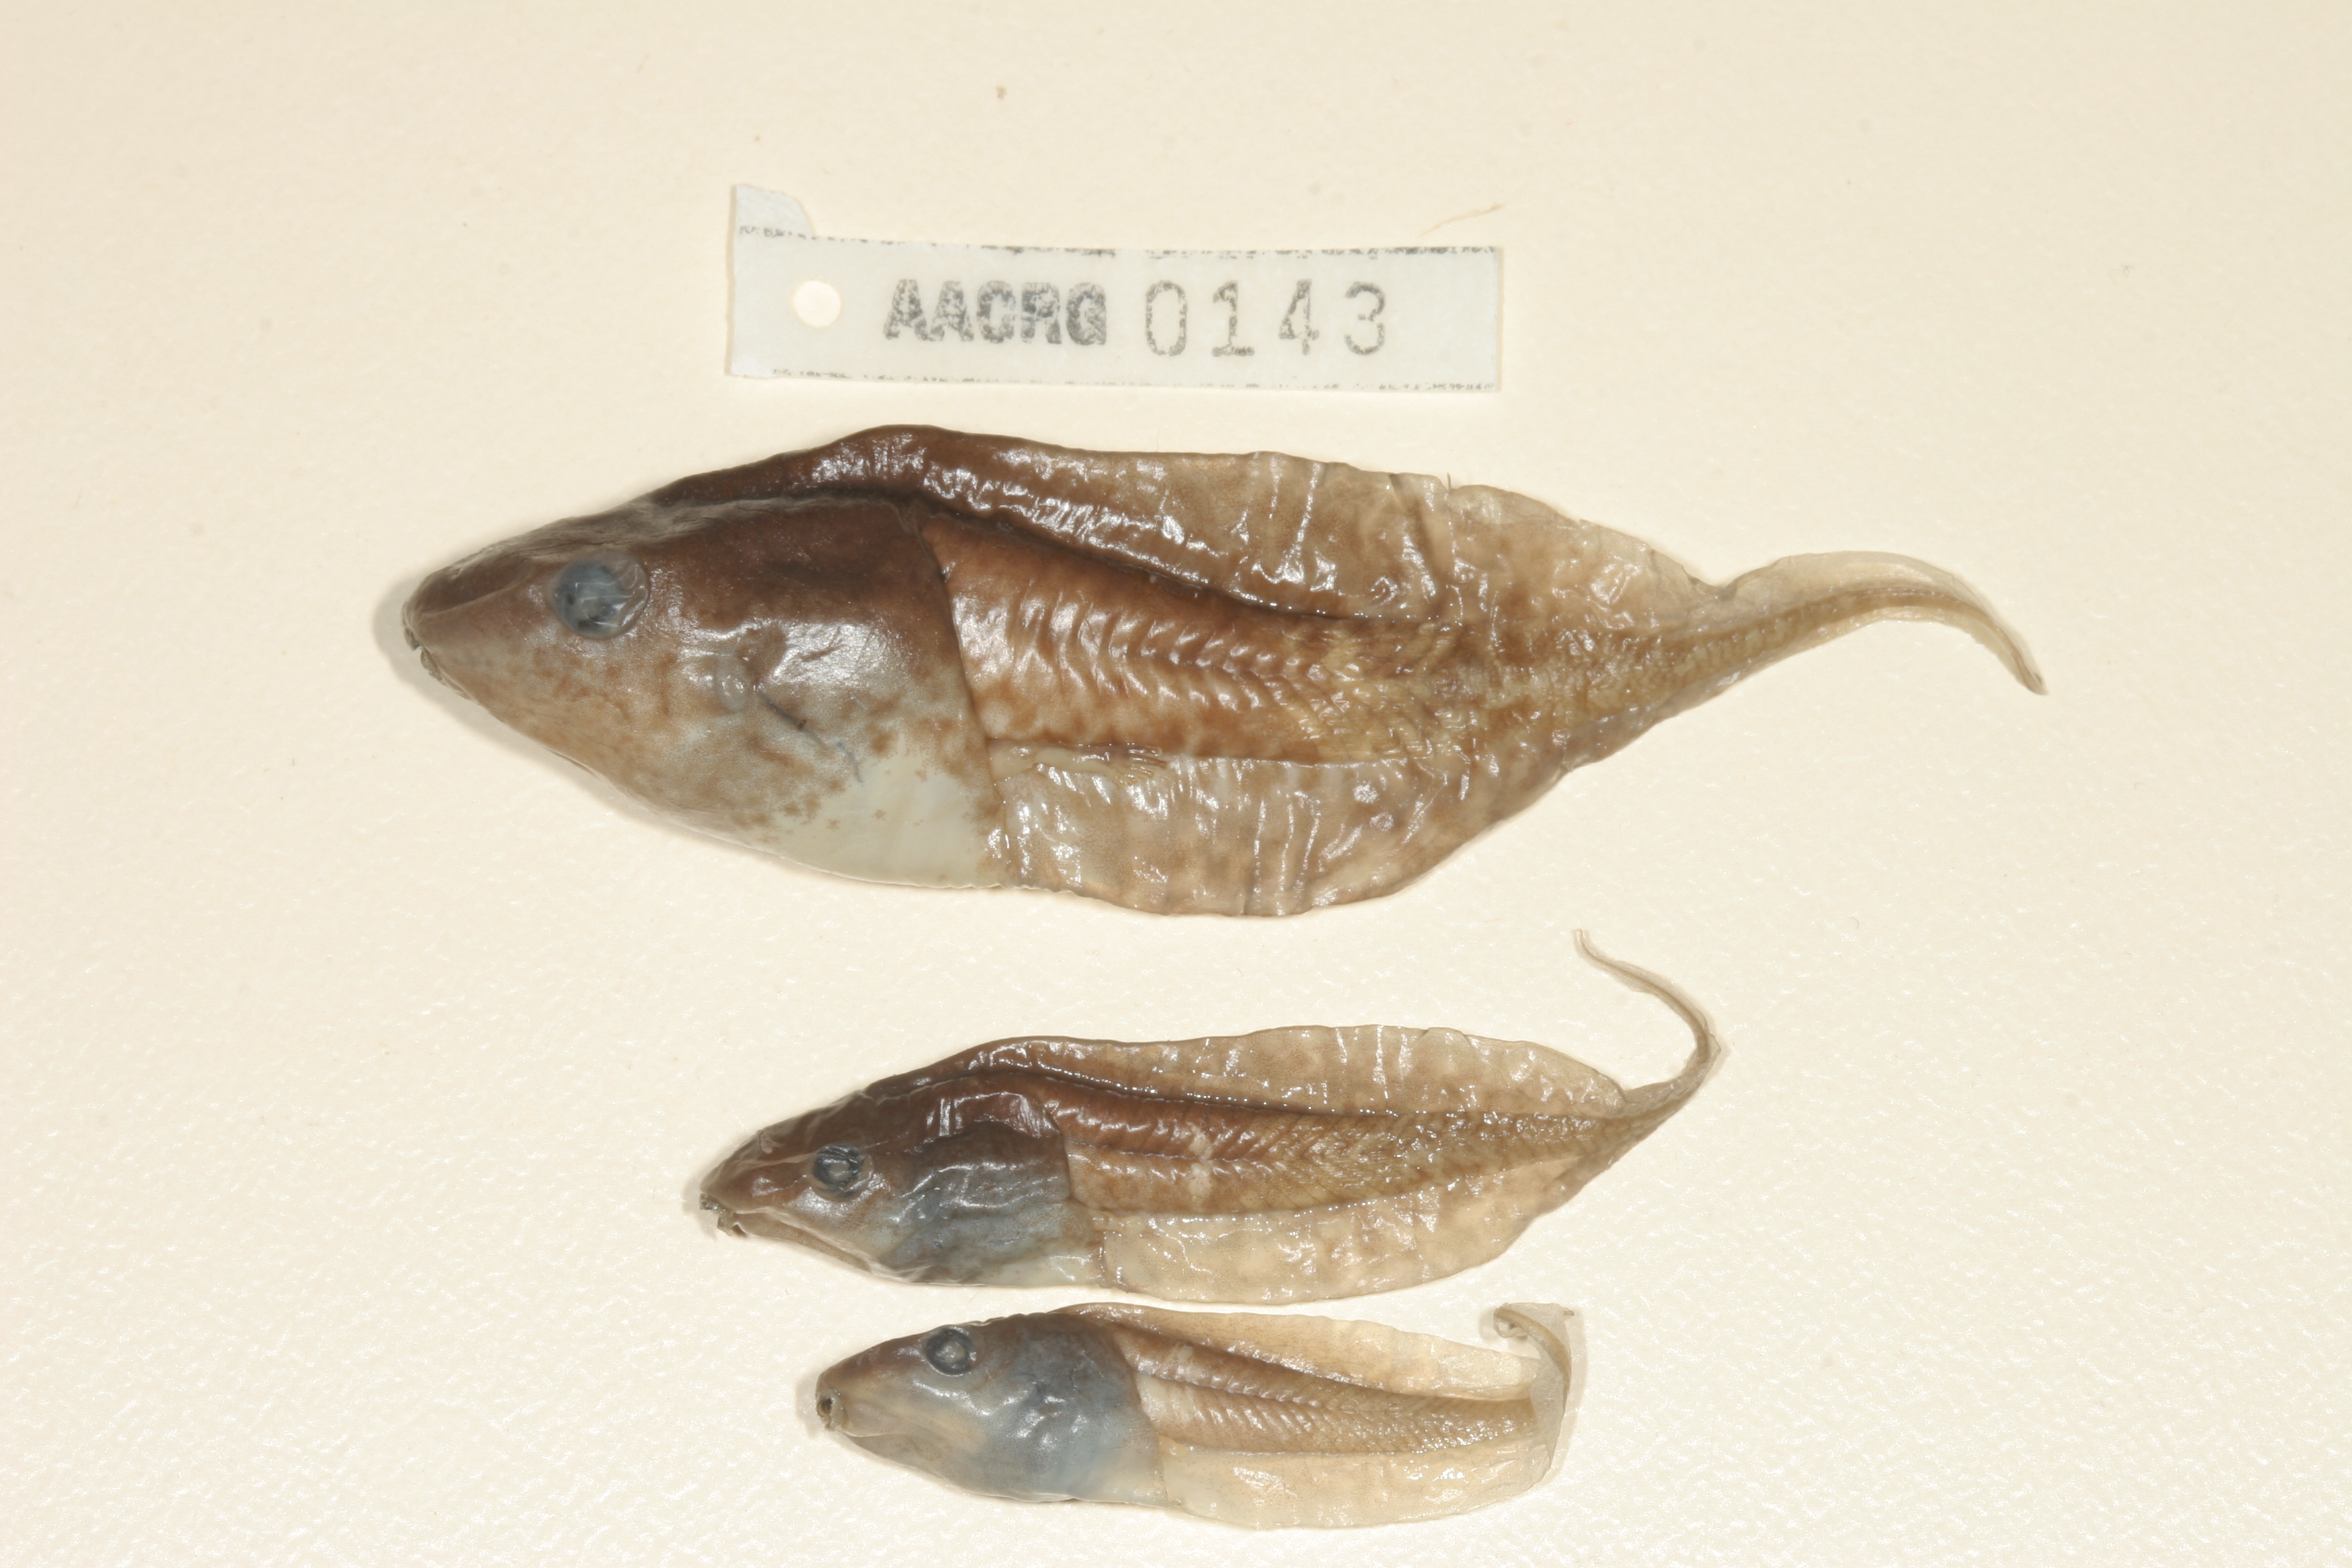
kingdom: Animalia
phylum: Chordata
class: Amphibia
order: Anura
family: Hyperoliidae
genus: Phlyctimantis
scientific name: Phlyctimantis maculatus
